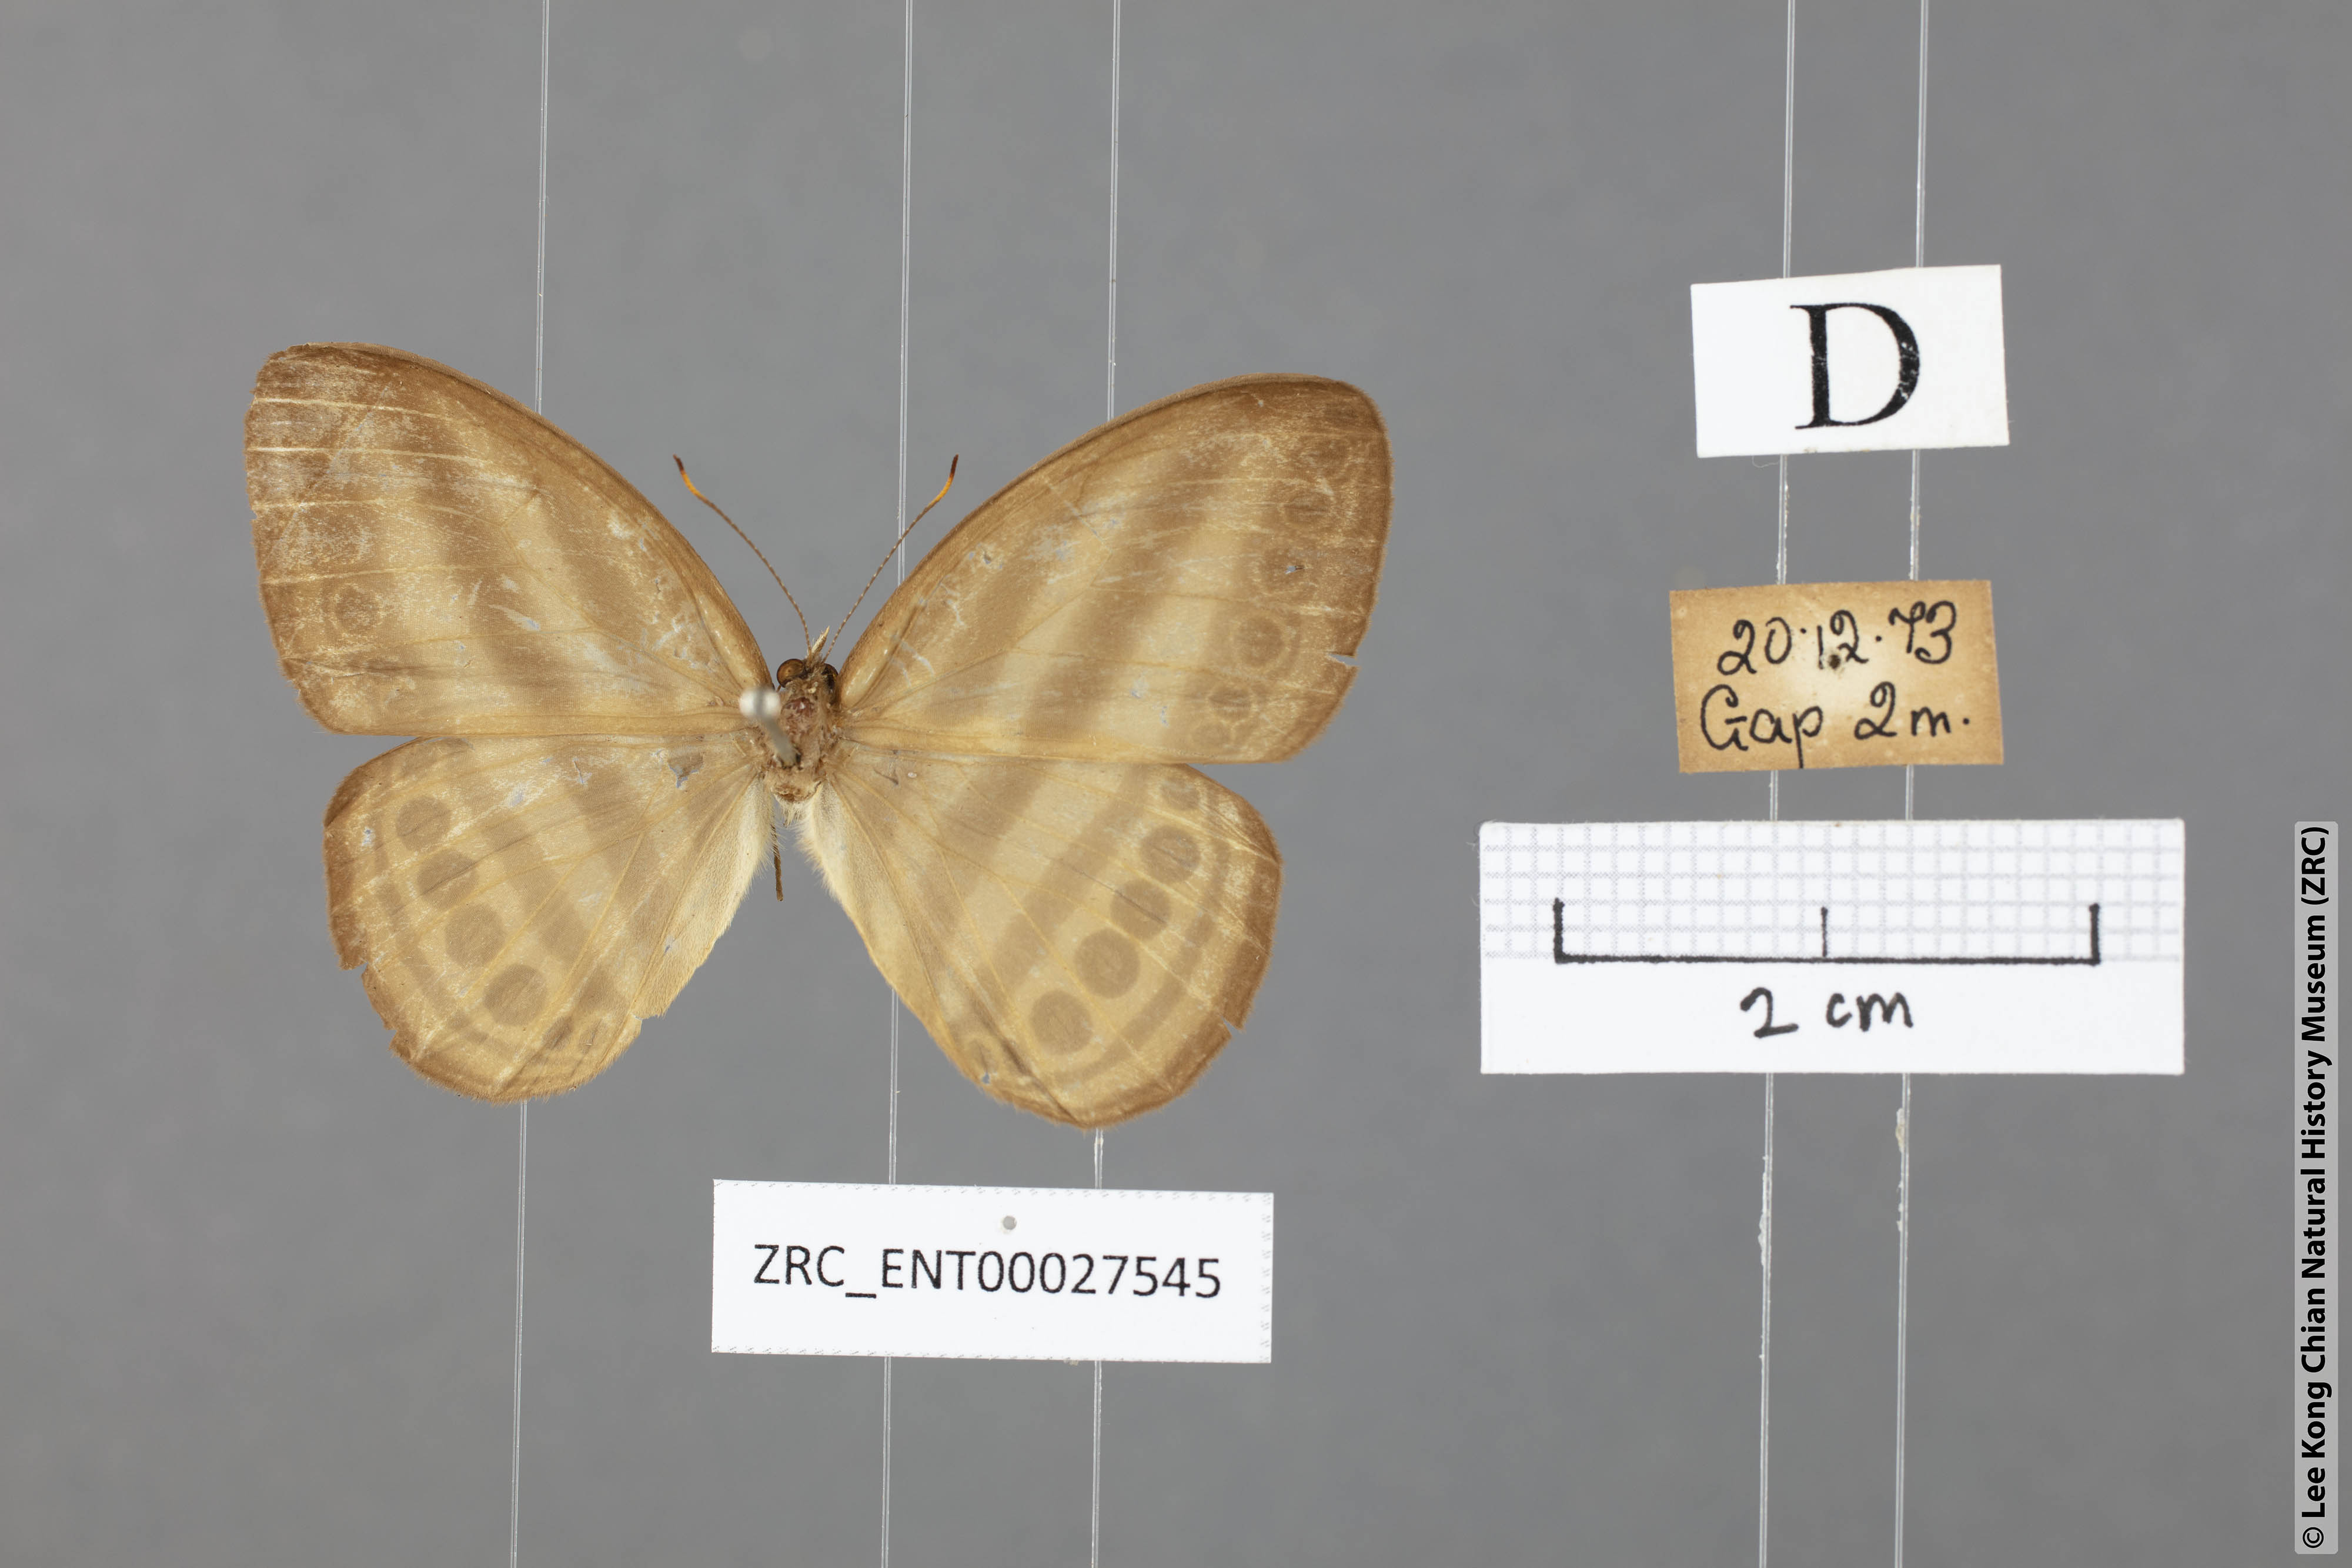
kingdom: Animalia
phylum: Arthropoda
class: Insecta
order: Lepidoptera
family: Nymphalidae
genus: Ragadia
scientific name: Ragadia makata
